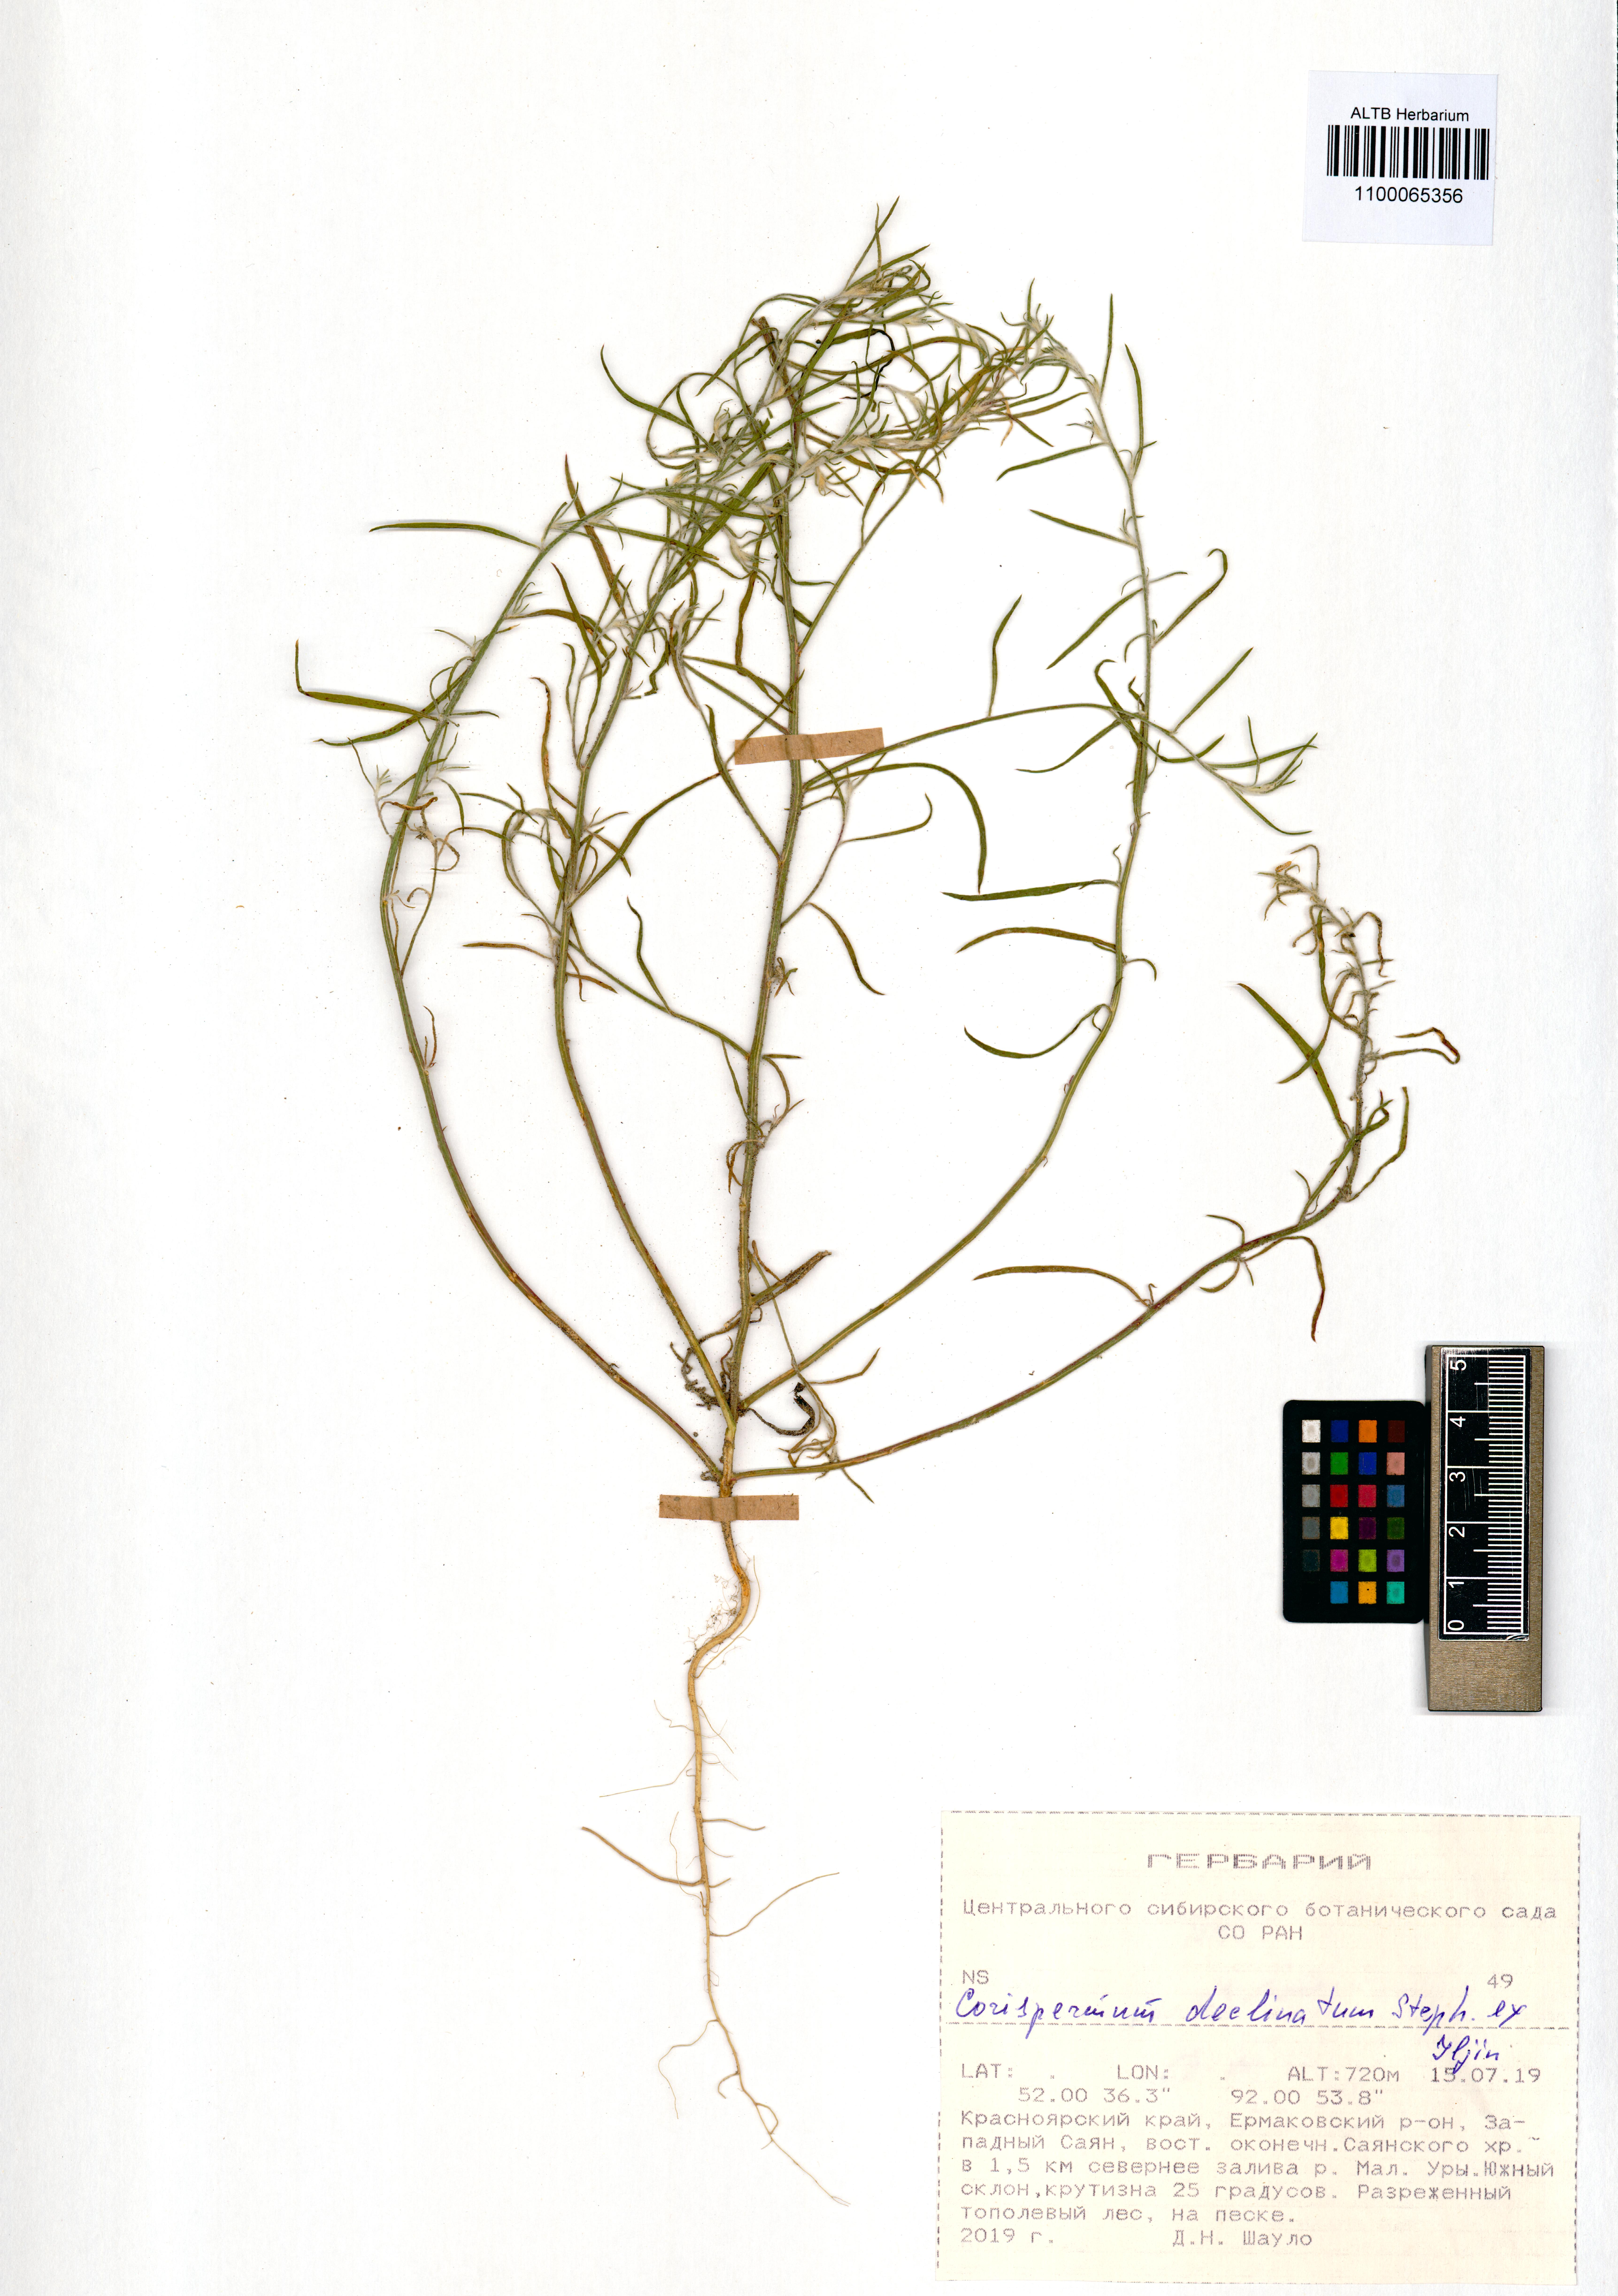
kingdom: Plantae
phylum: Tracheophyta
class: Magnoliopsida
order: Caryophyllales
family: Amaranthaceae
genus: Corispermum
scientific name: Corispermum declinatum
